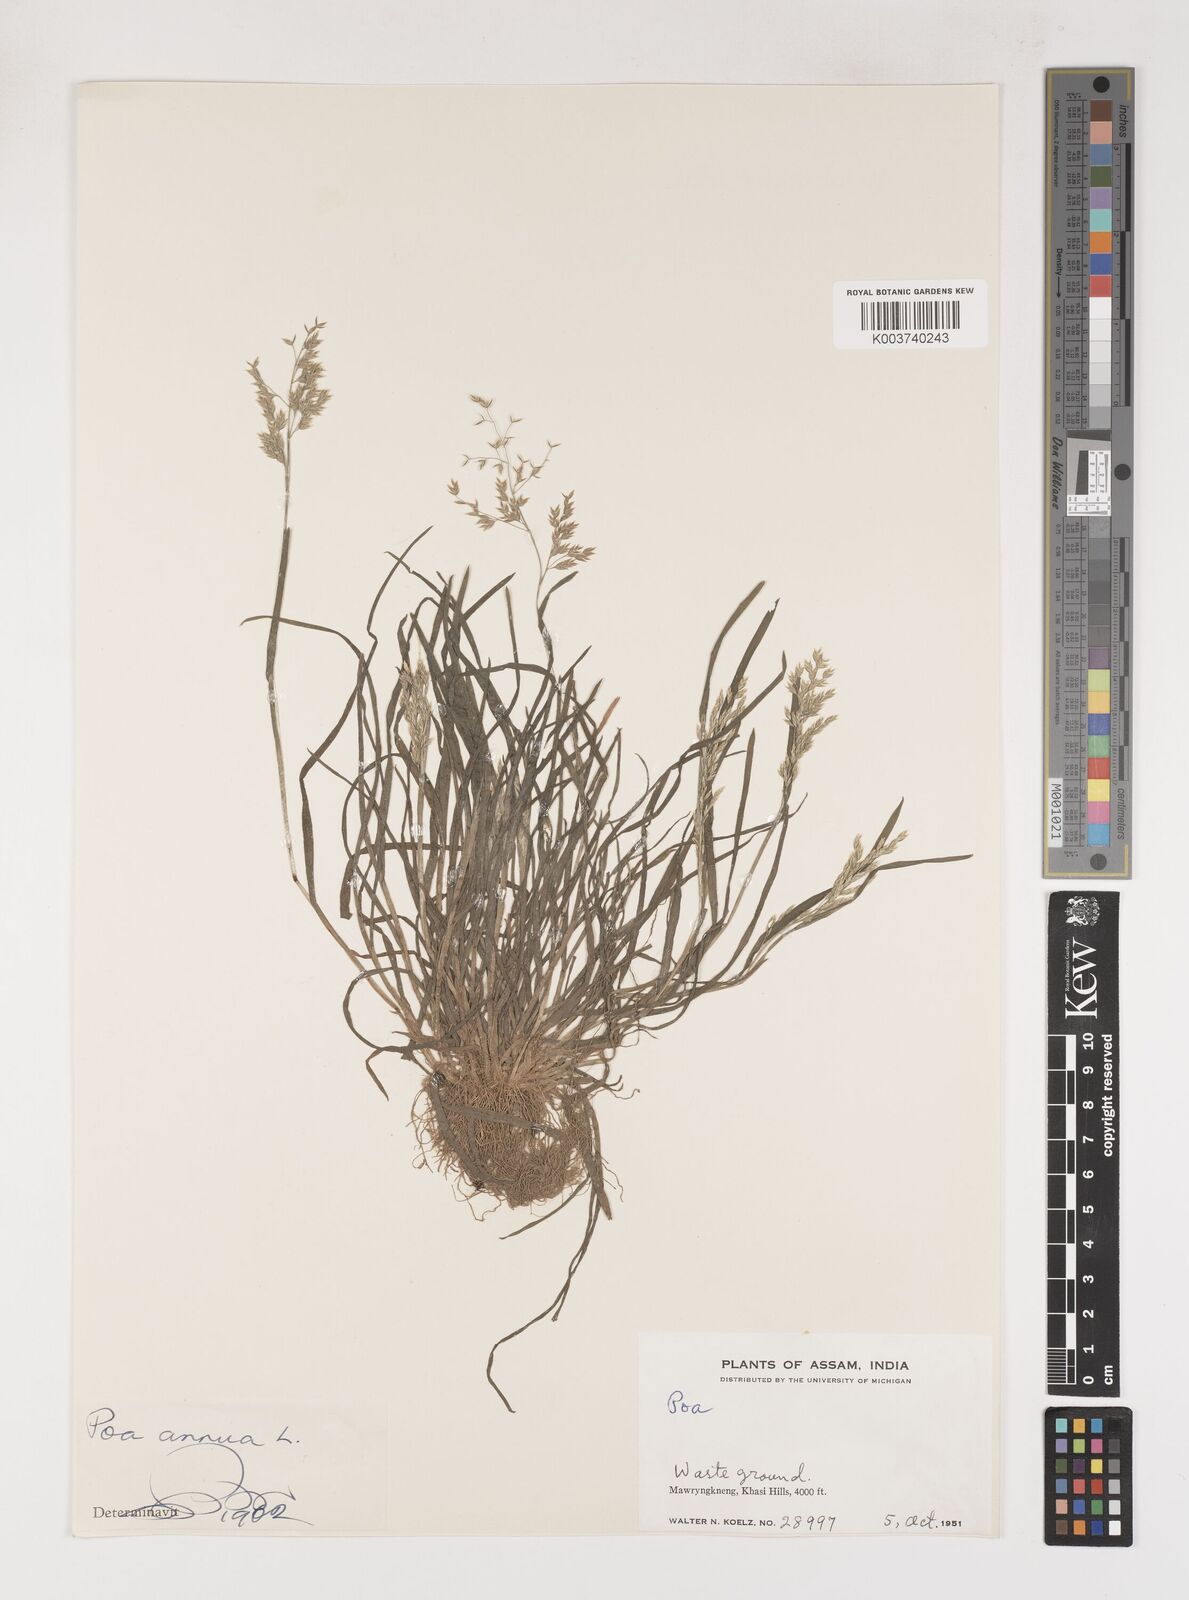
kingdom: Plantae
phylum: Tracheophyta
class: Liliopsida
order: Poales
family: Poaceae
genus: Poa
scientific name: Poa annua
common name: Annual bluegrass
